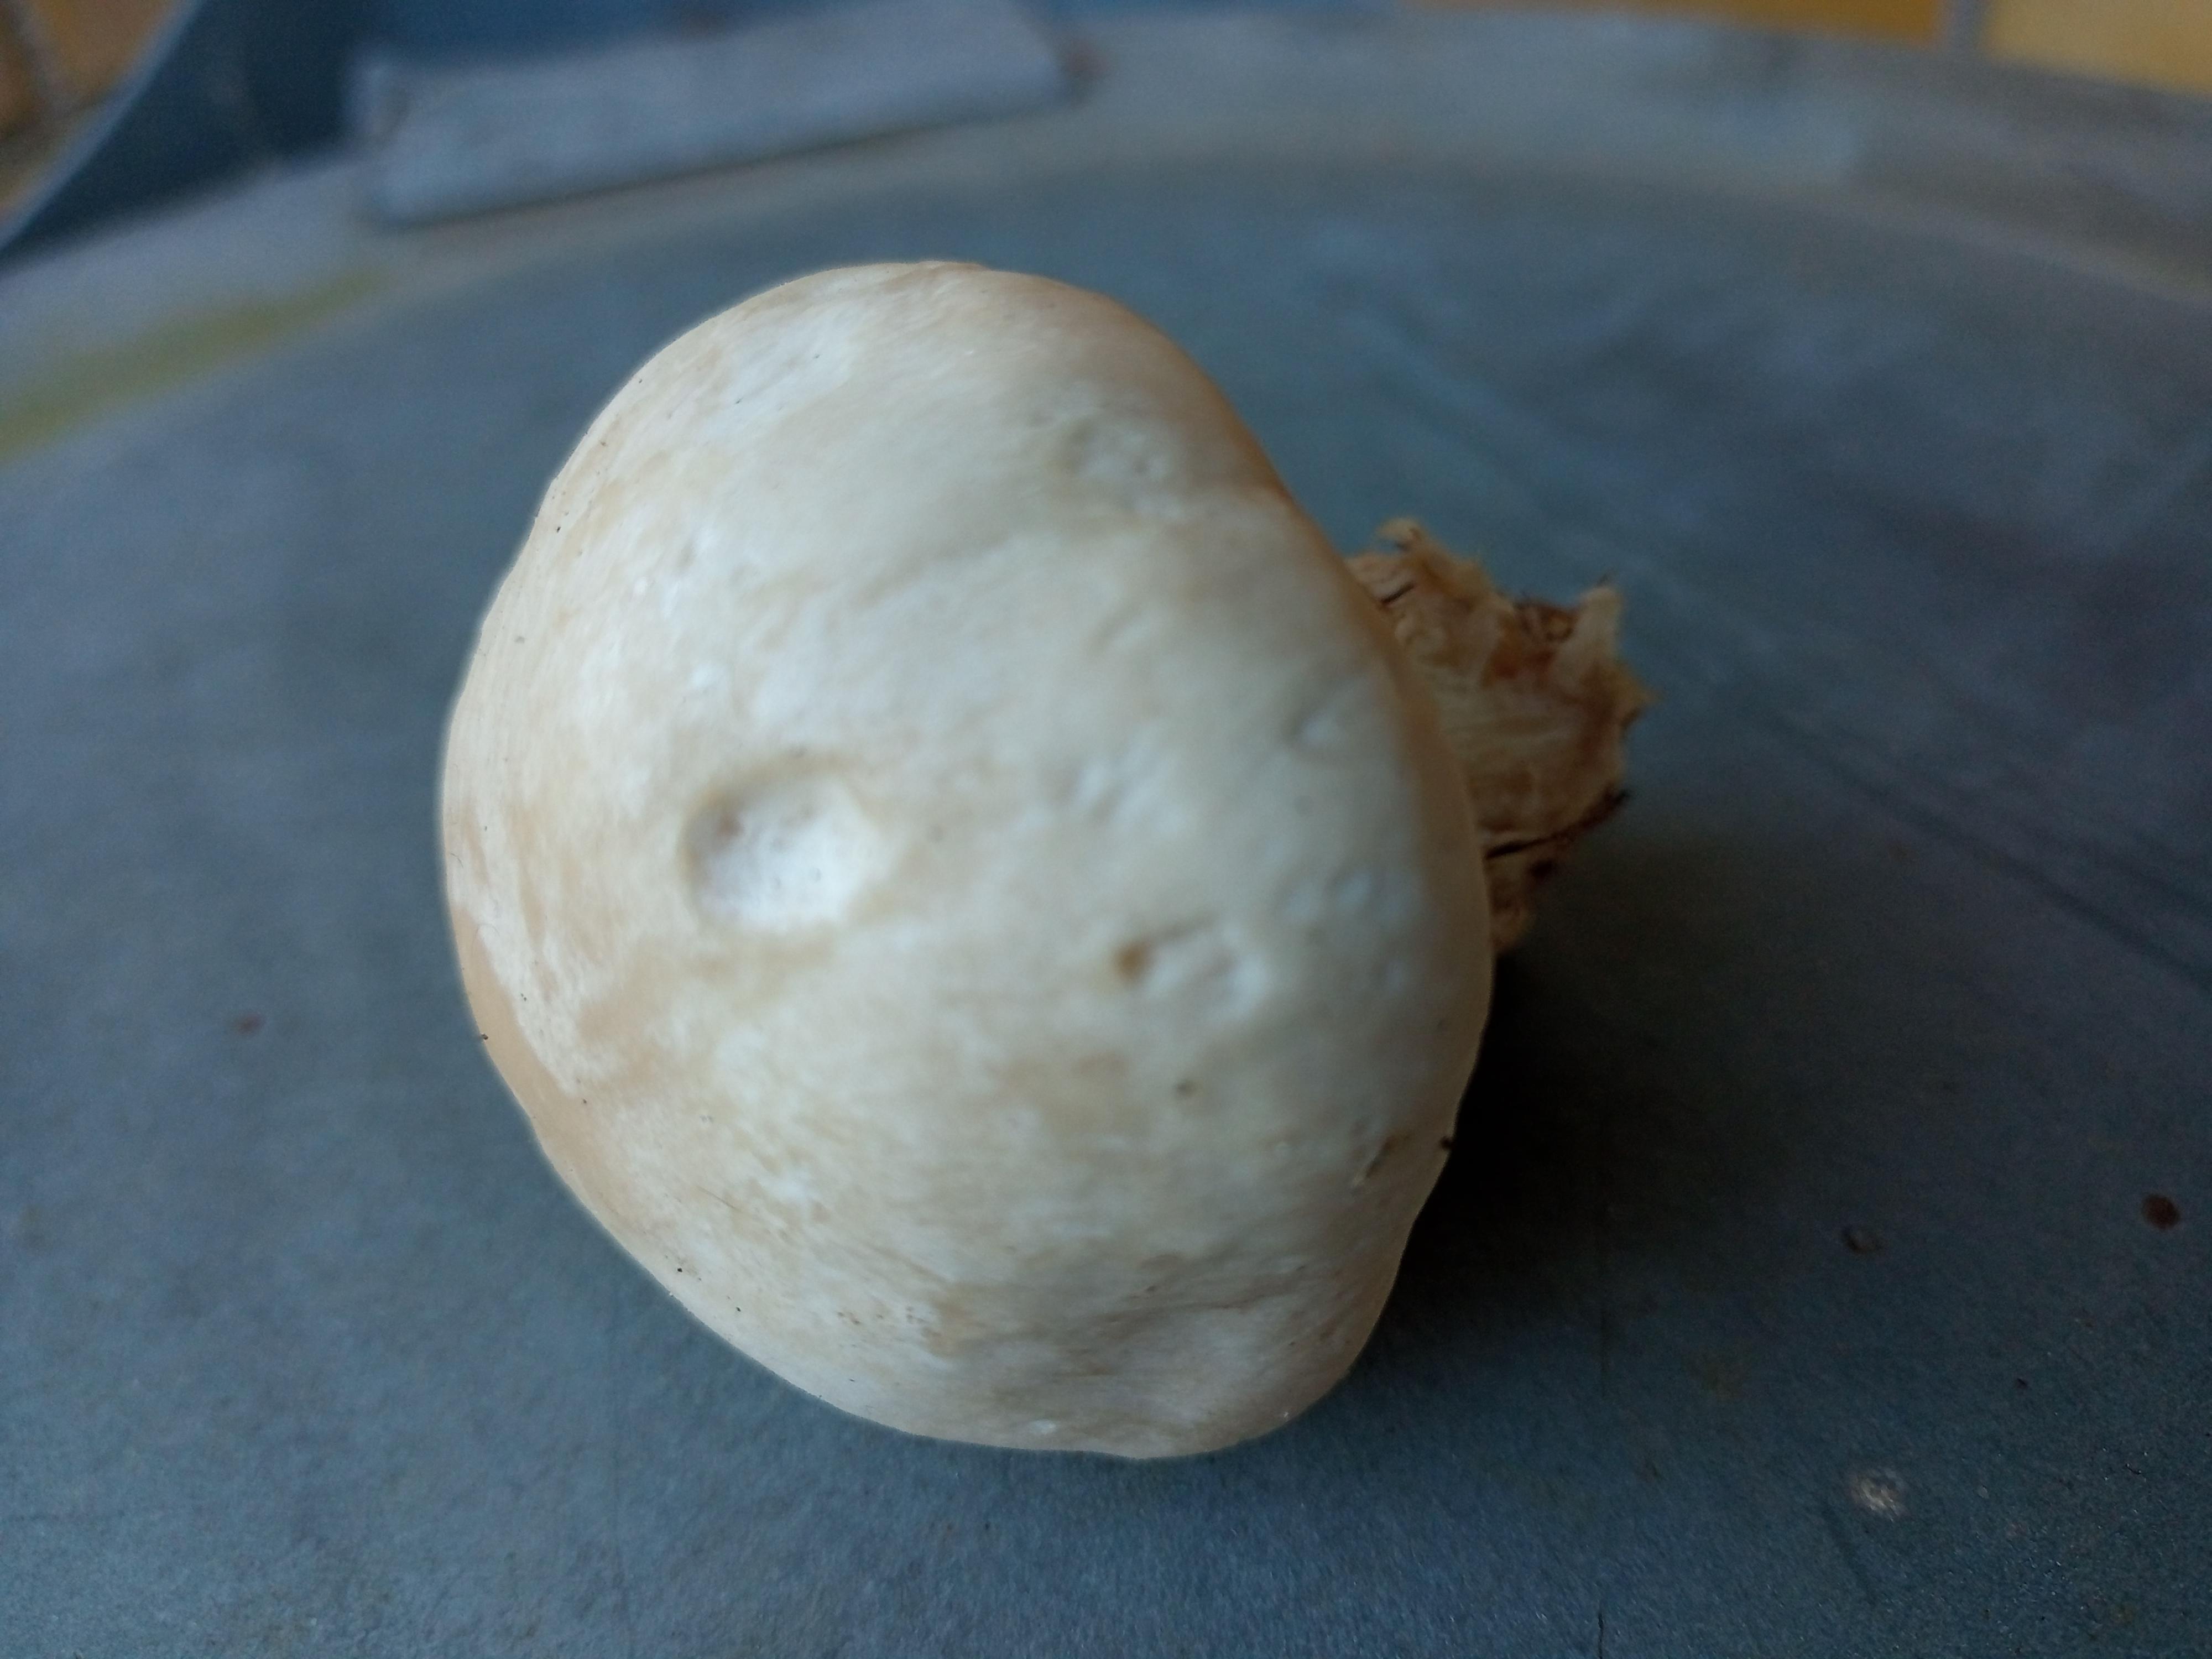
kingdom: Fungi
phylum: Basidiomycota
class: Agaricomycetes
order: Agaricales
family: Lyophyllaceae
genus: Calocybe
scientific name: Calocybe gambosa
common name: vårmusseron
